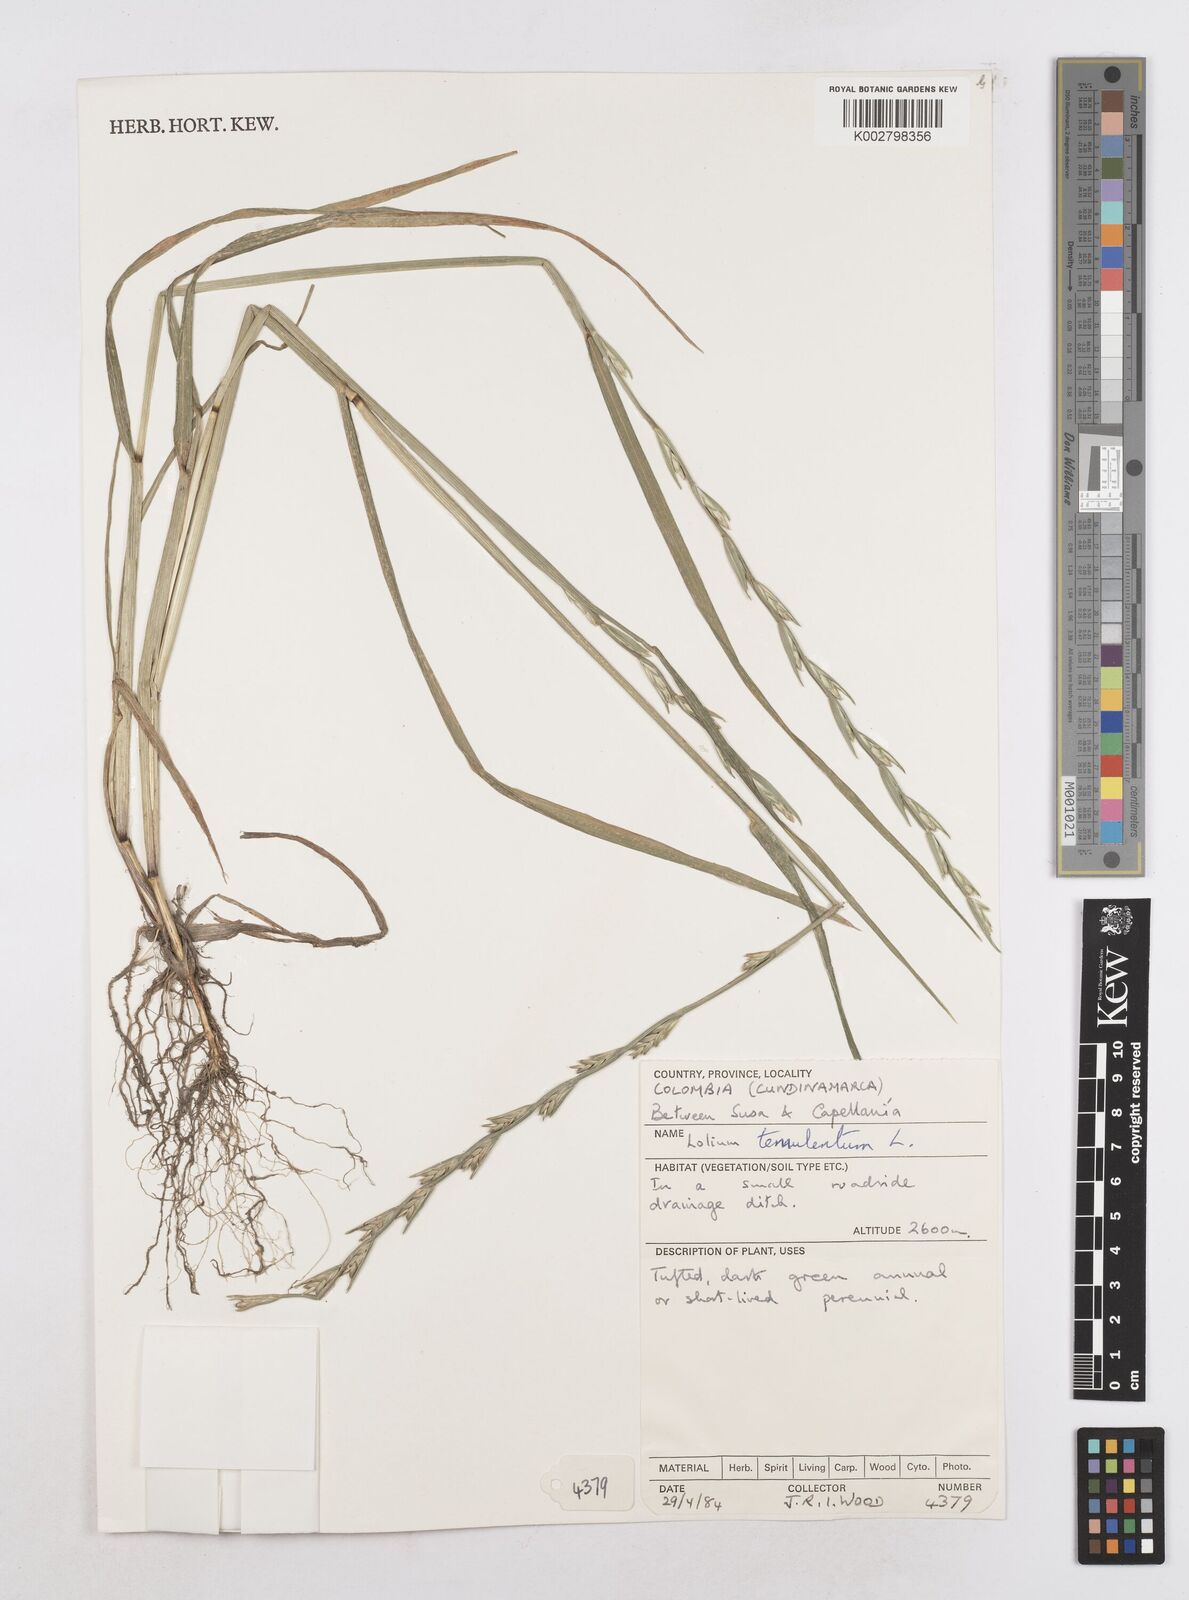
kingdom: Plantae
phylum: Tracheophyta
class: Liliopsida
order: Poales
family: Poaceae
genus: Lolium
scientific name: Lolium temulentum
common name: Darnel
